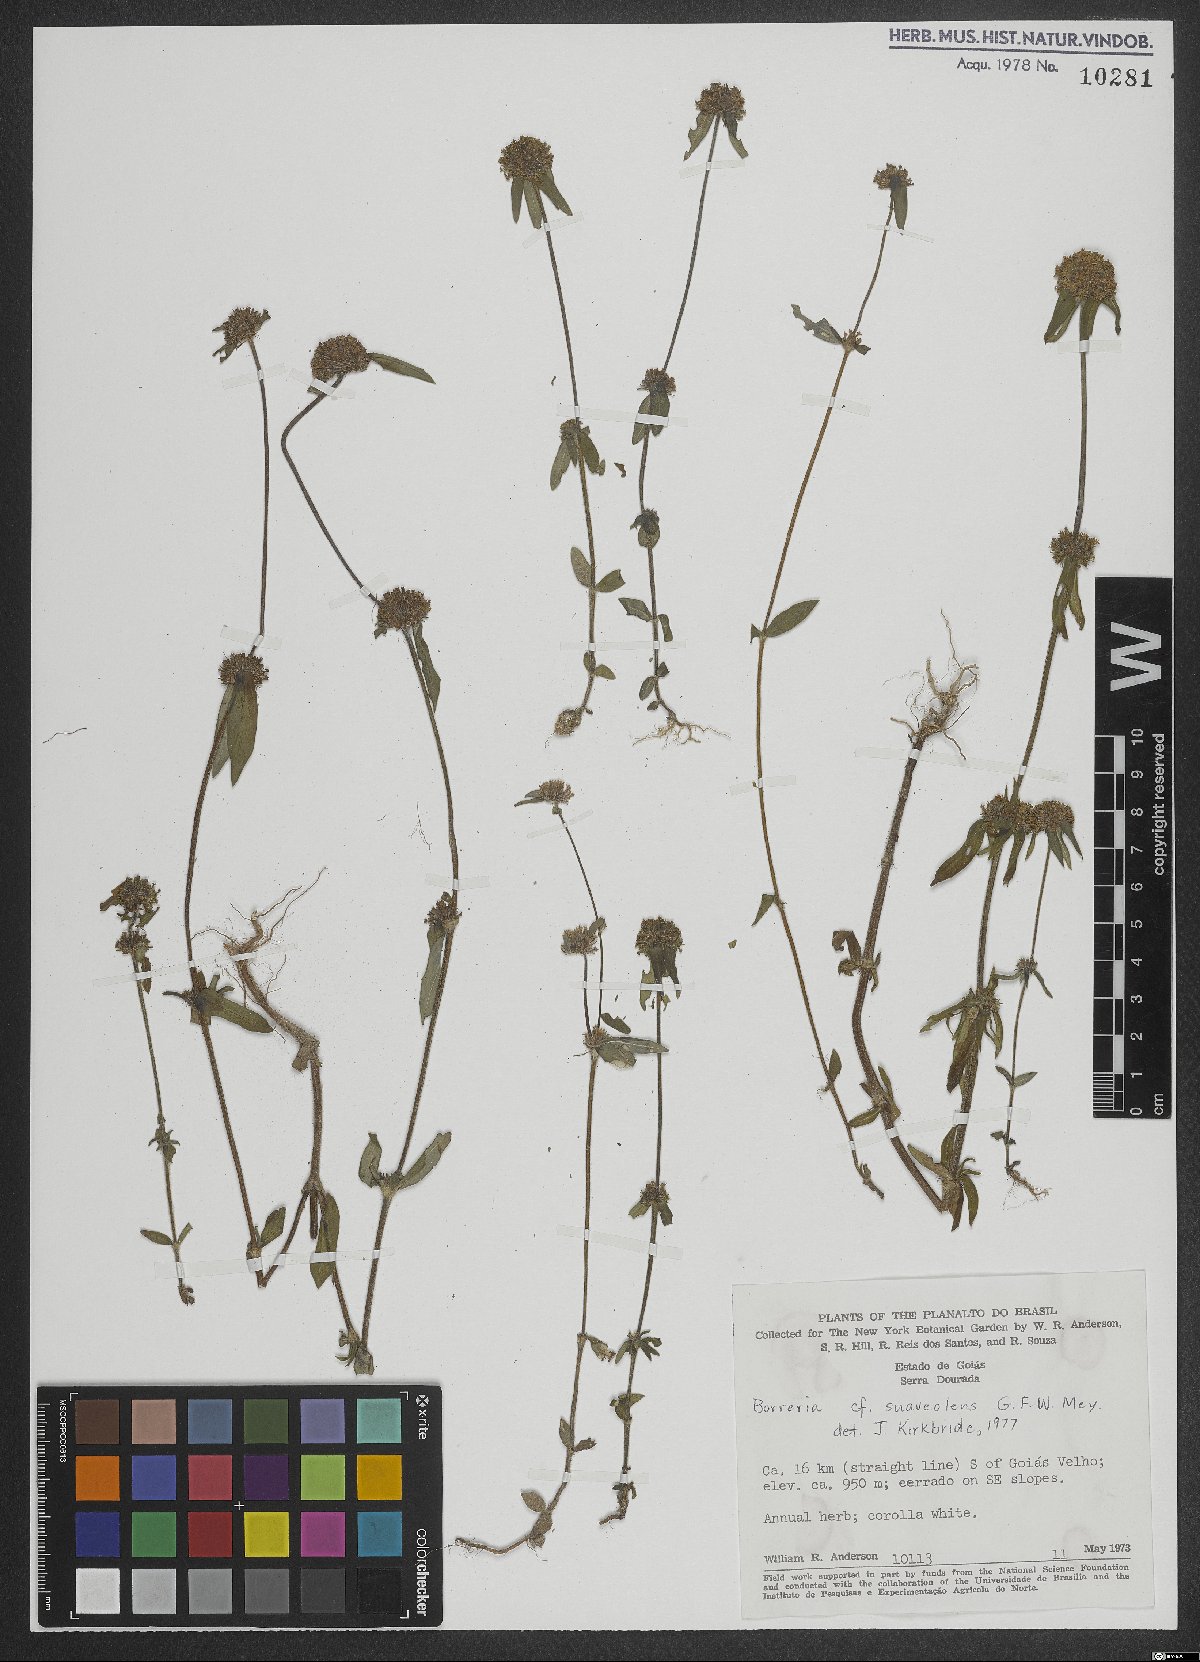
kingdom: Plantae
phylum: Tracheophyta
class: Magnoliopsida
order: Gentianales
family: Rubiaceae
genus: Spermacoce
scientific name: Spermacoce suaveolens
